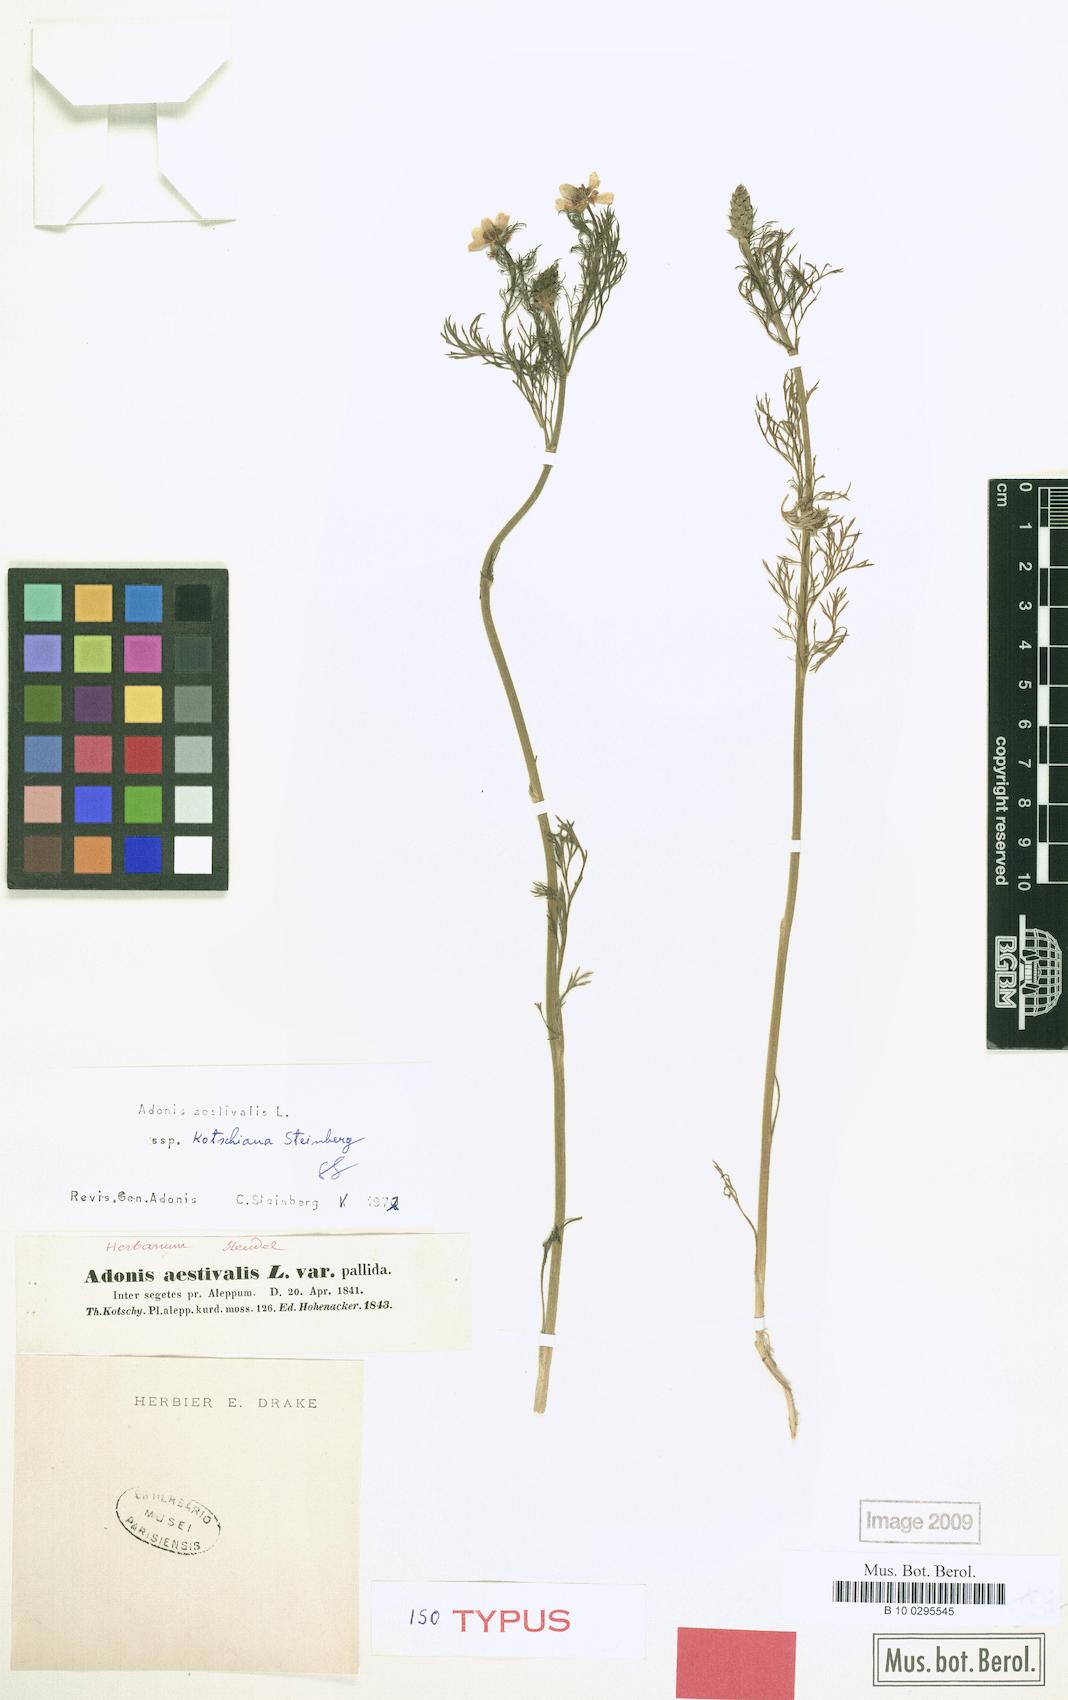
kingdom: Plantae
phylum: Tracheophyta
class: Magnoliopsida
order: Ranunculales
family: Ranunculaceae
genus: Adonis
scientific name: Adonis aestivalis
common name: Summer pheasant's-eye
